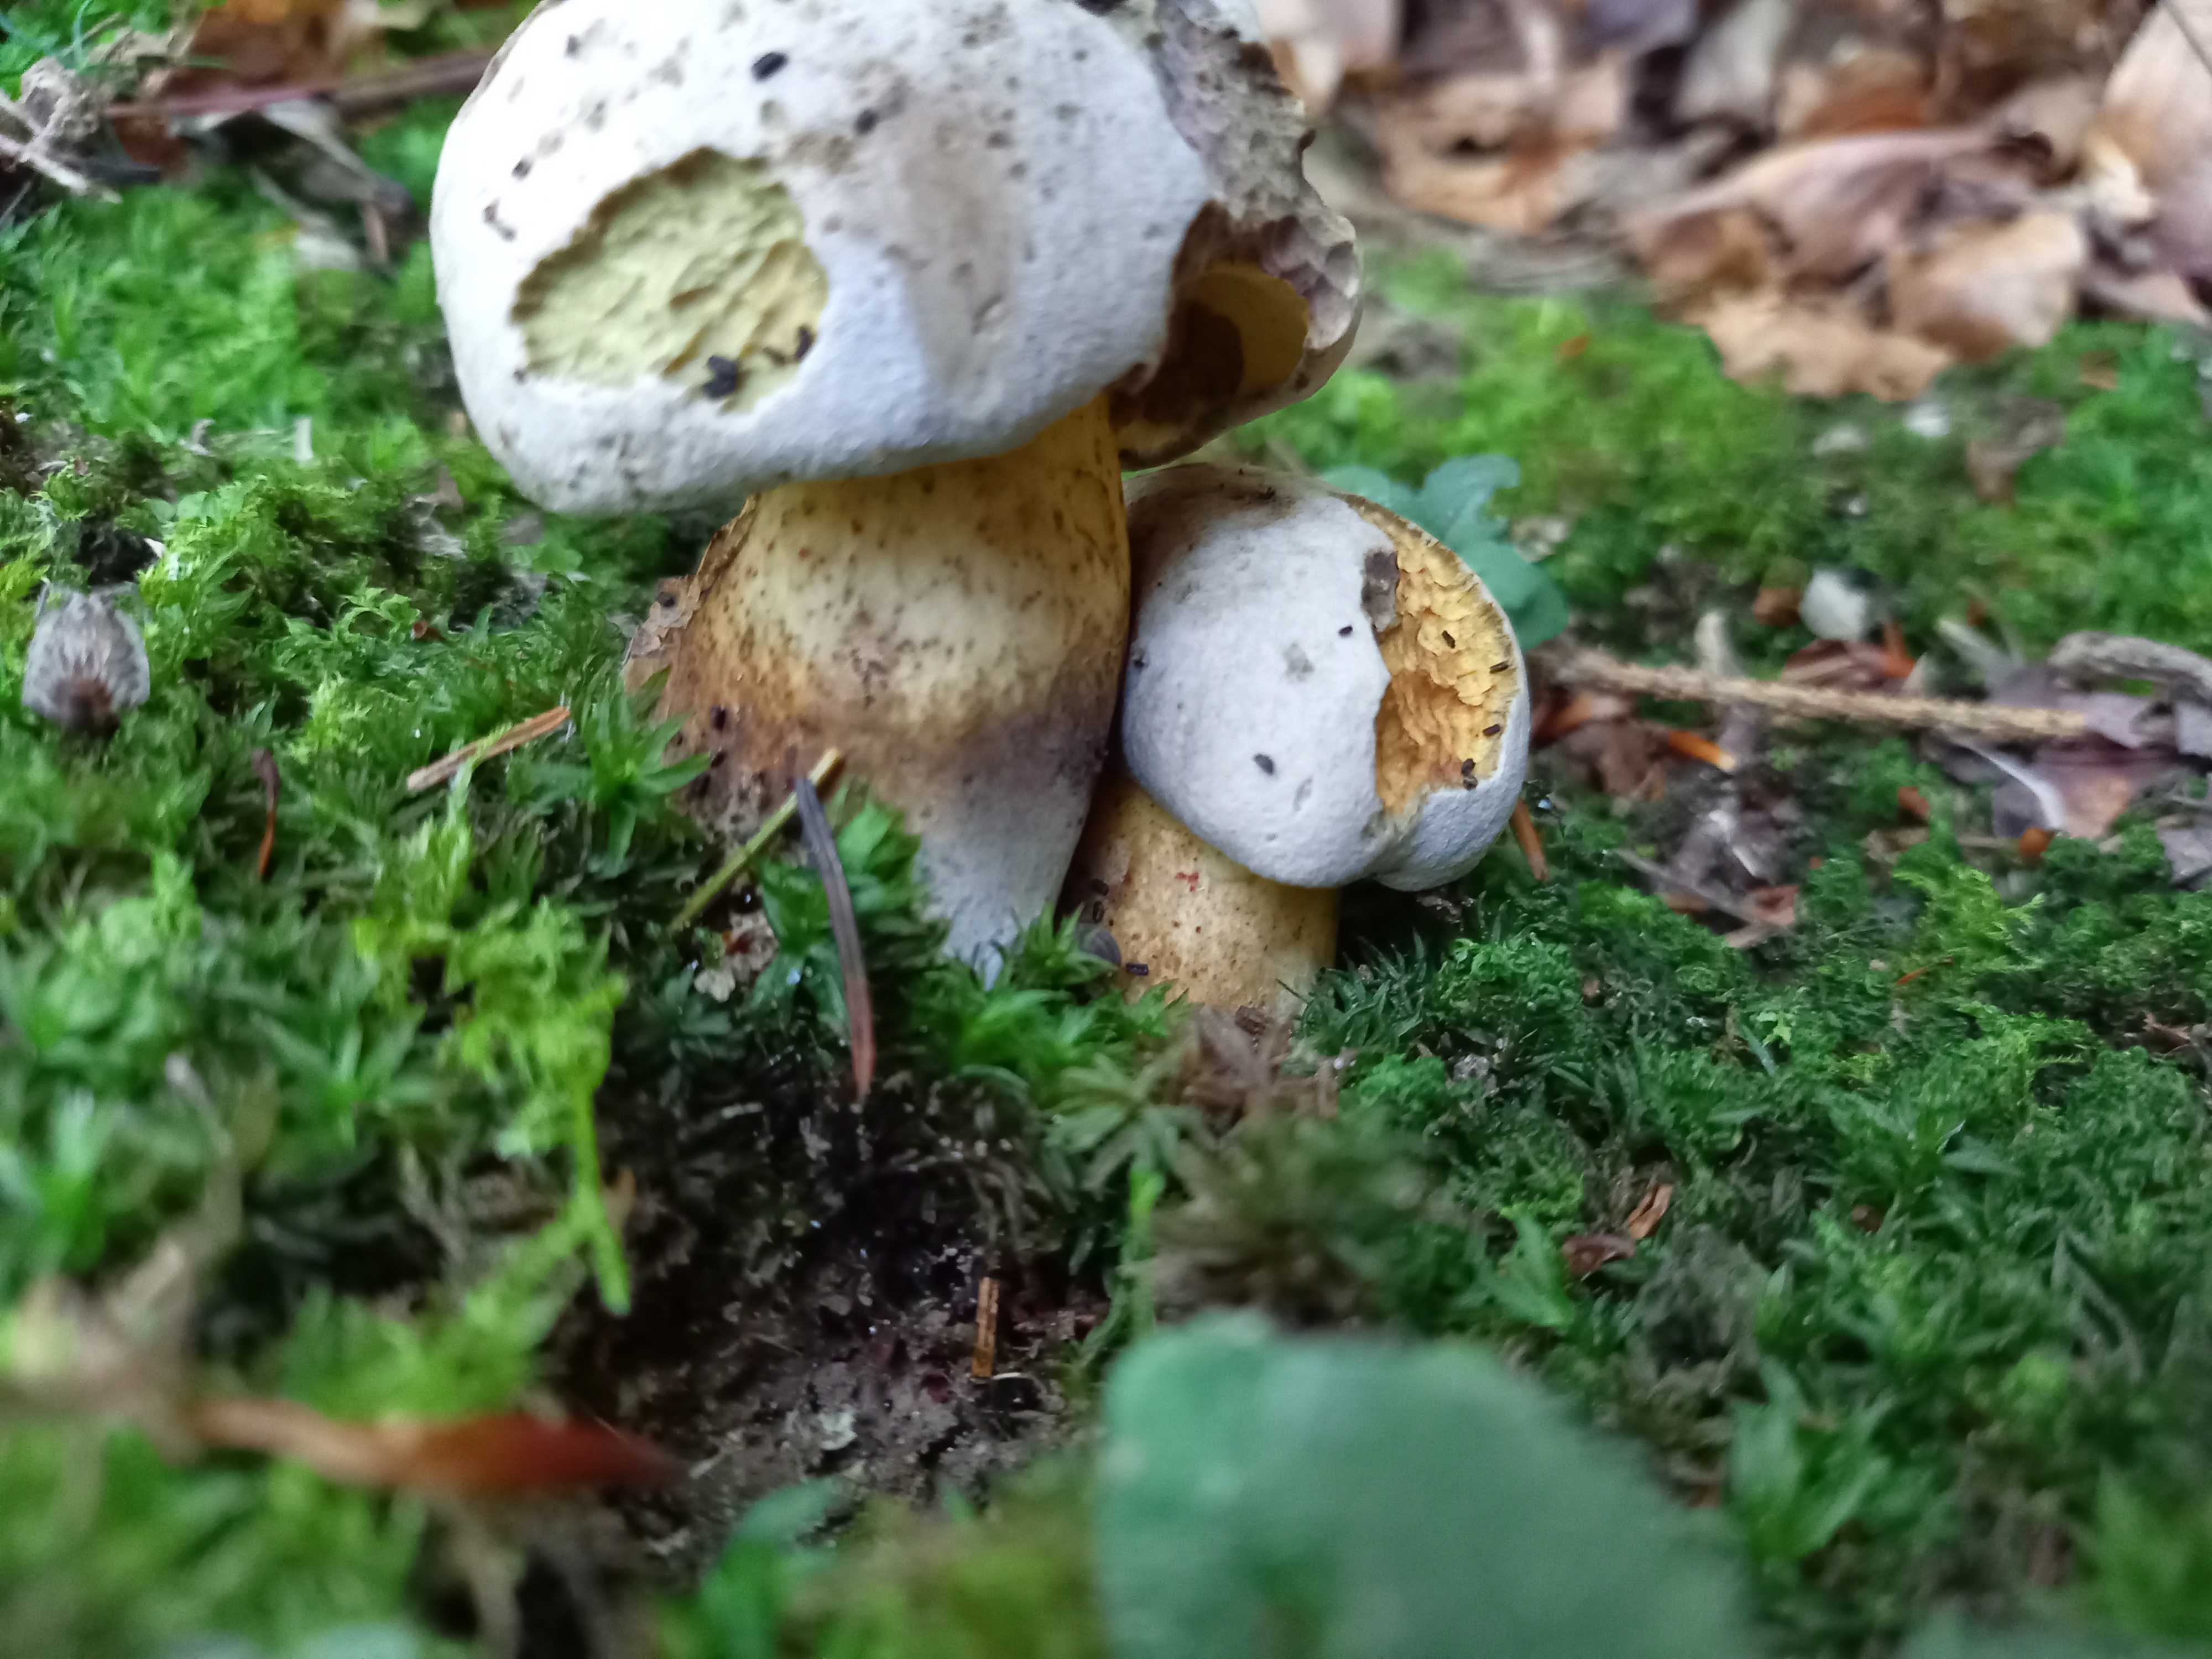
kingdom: Fungi
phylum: Basidiomycota
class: Agaricomycetes
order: Boletales
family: Boletaceae
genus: Caloboletus
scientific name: Caloboletus radicans
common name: rod-rørhat
